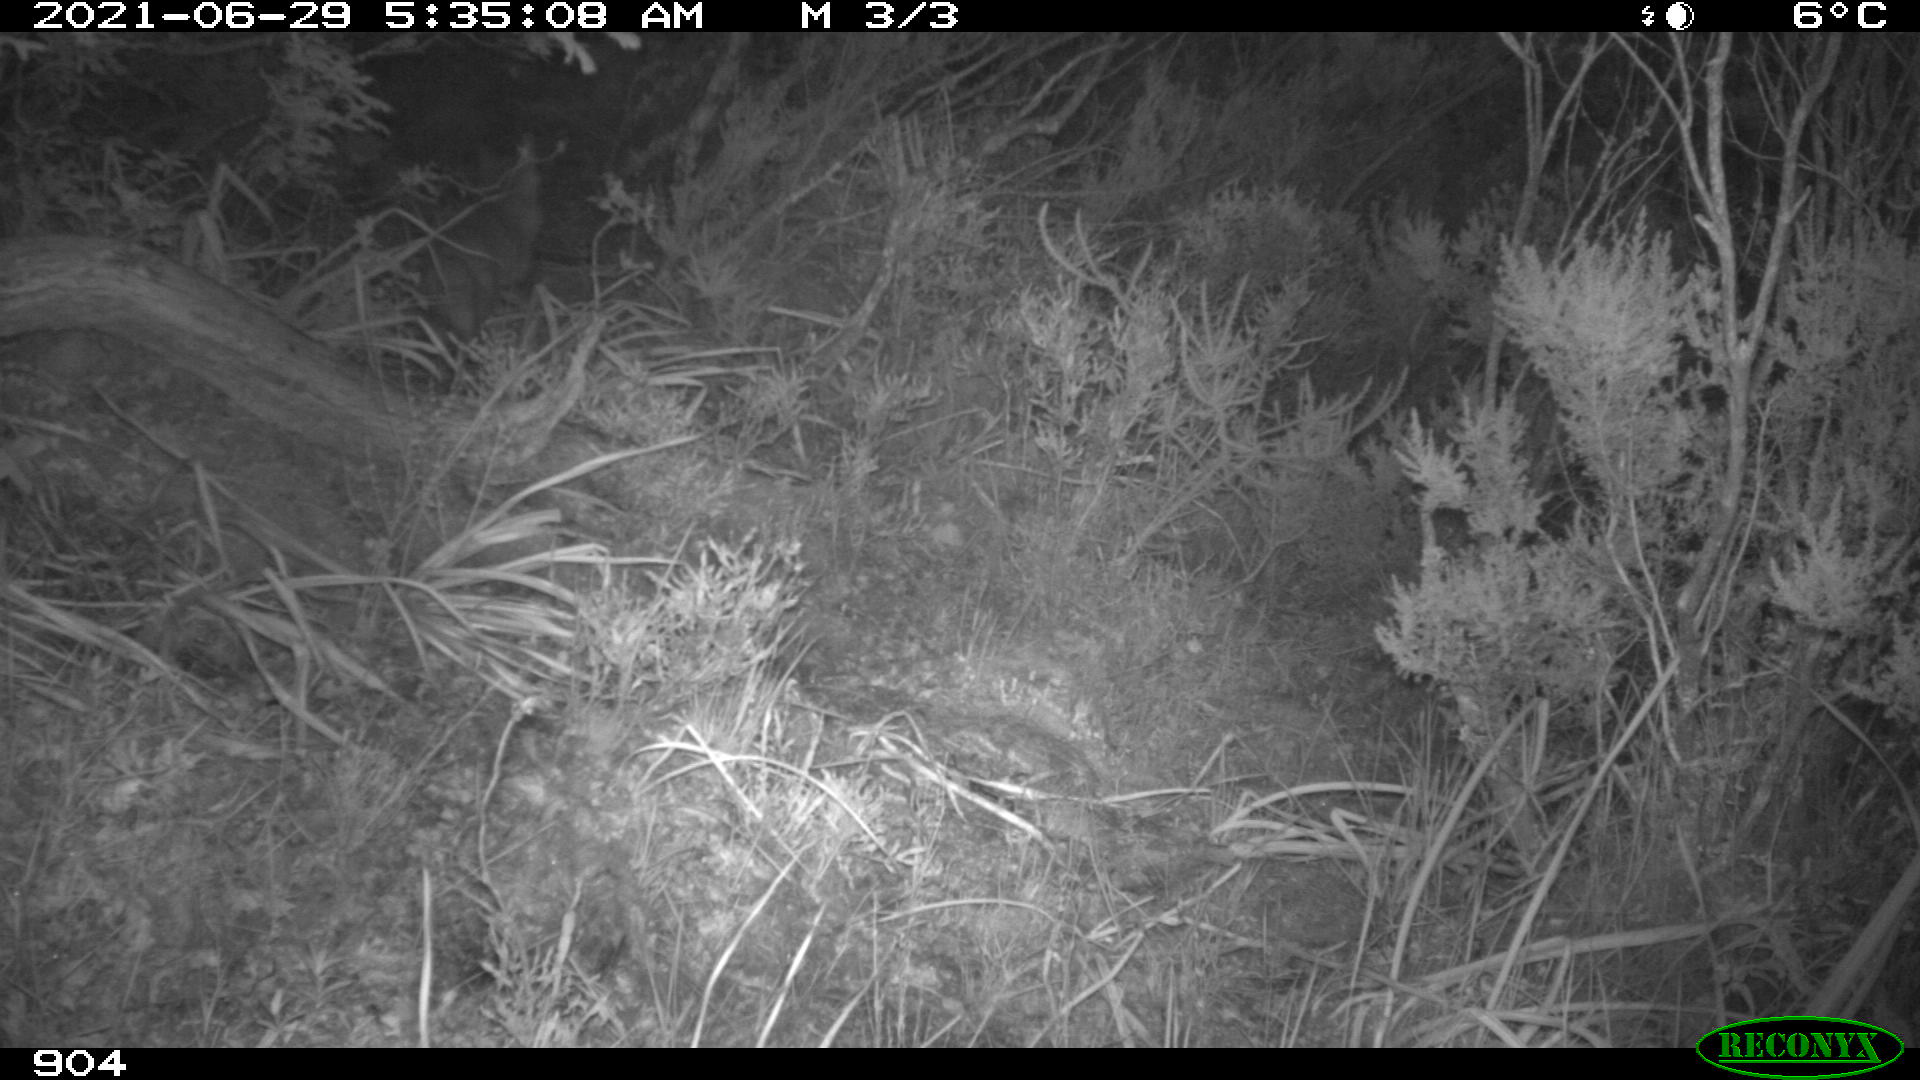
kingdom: Animalia
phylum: Chordata
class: Mammalia
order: Carnivora
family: Canidae
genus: Vulpes
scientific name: Vulpes vulpes
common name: Red fox
